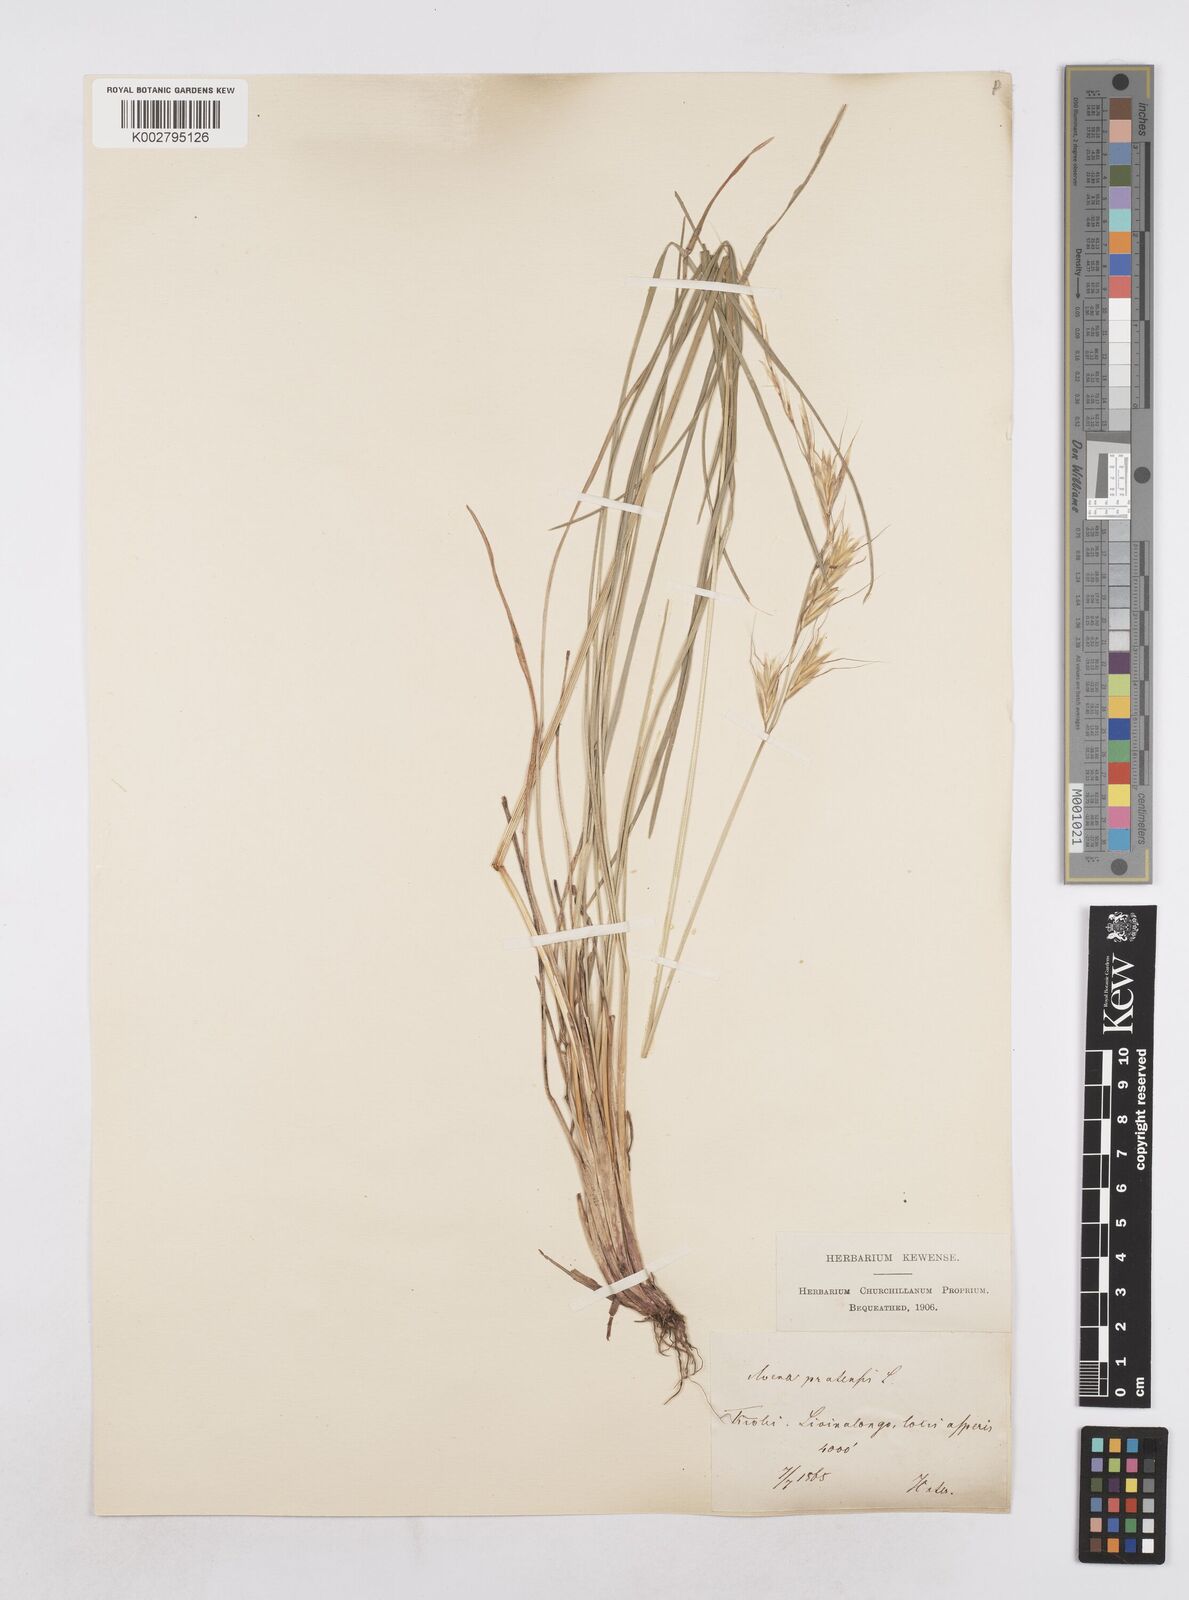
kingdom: Plantae
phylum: Tracheophyta
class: Liliopsida
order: Poales
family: Poaceae
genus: Helictochloa
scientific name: Helictochloa pratensis
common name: Meadow oat grass
